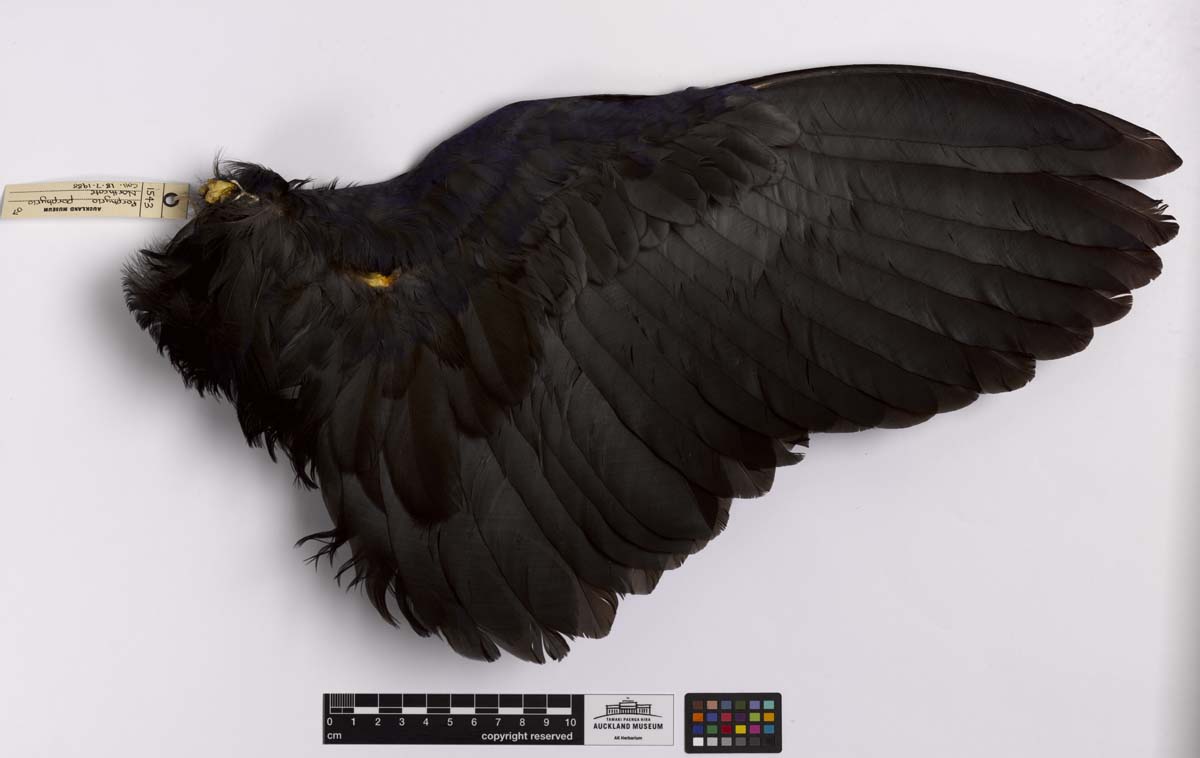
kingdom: Animalia
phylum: Chordata
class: Aves
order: Gruiformes
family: Rallidae
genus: Porphyrio
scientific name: Porphyrio melanotus
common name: Australasian swamphen
